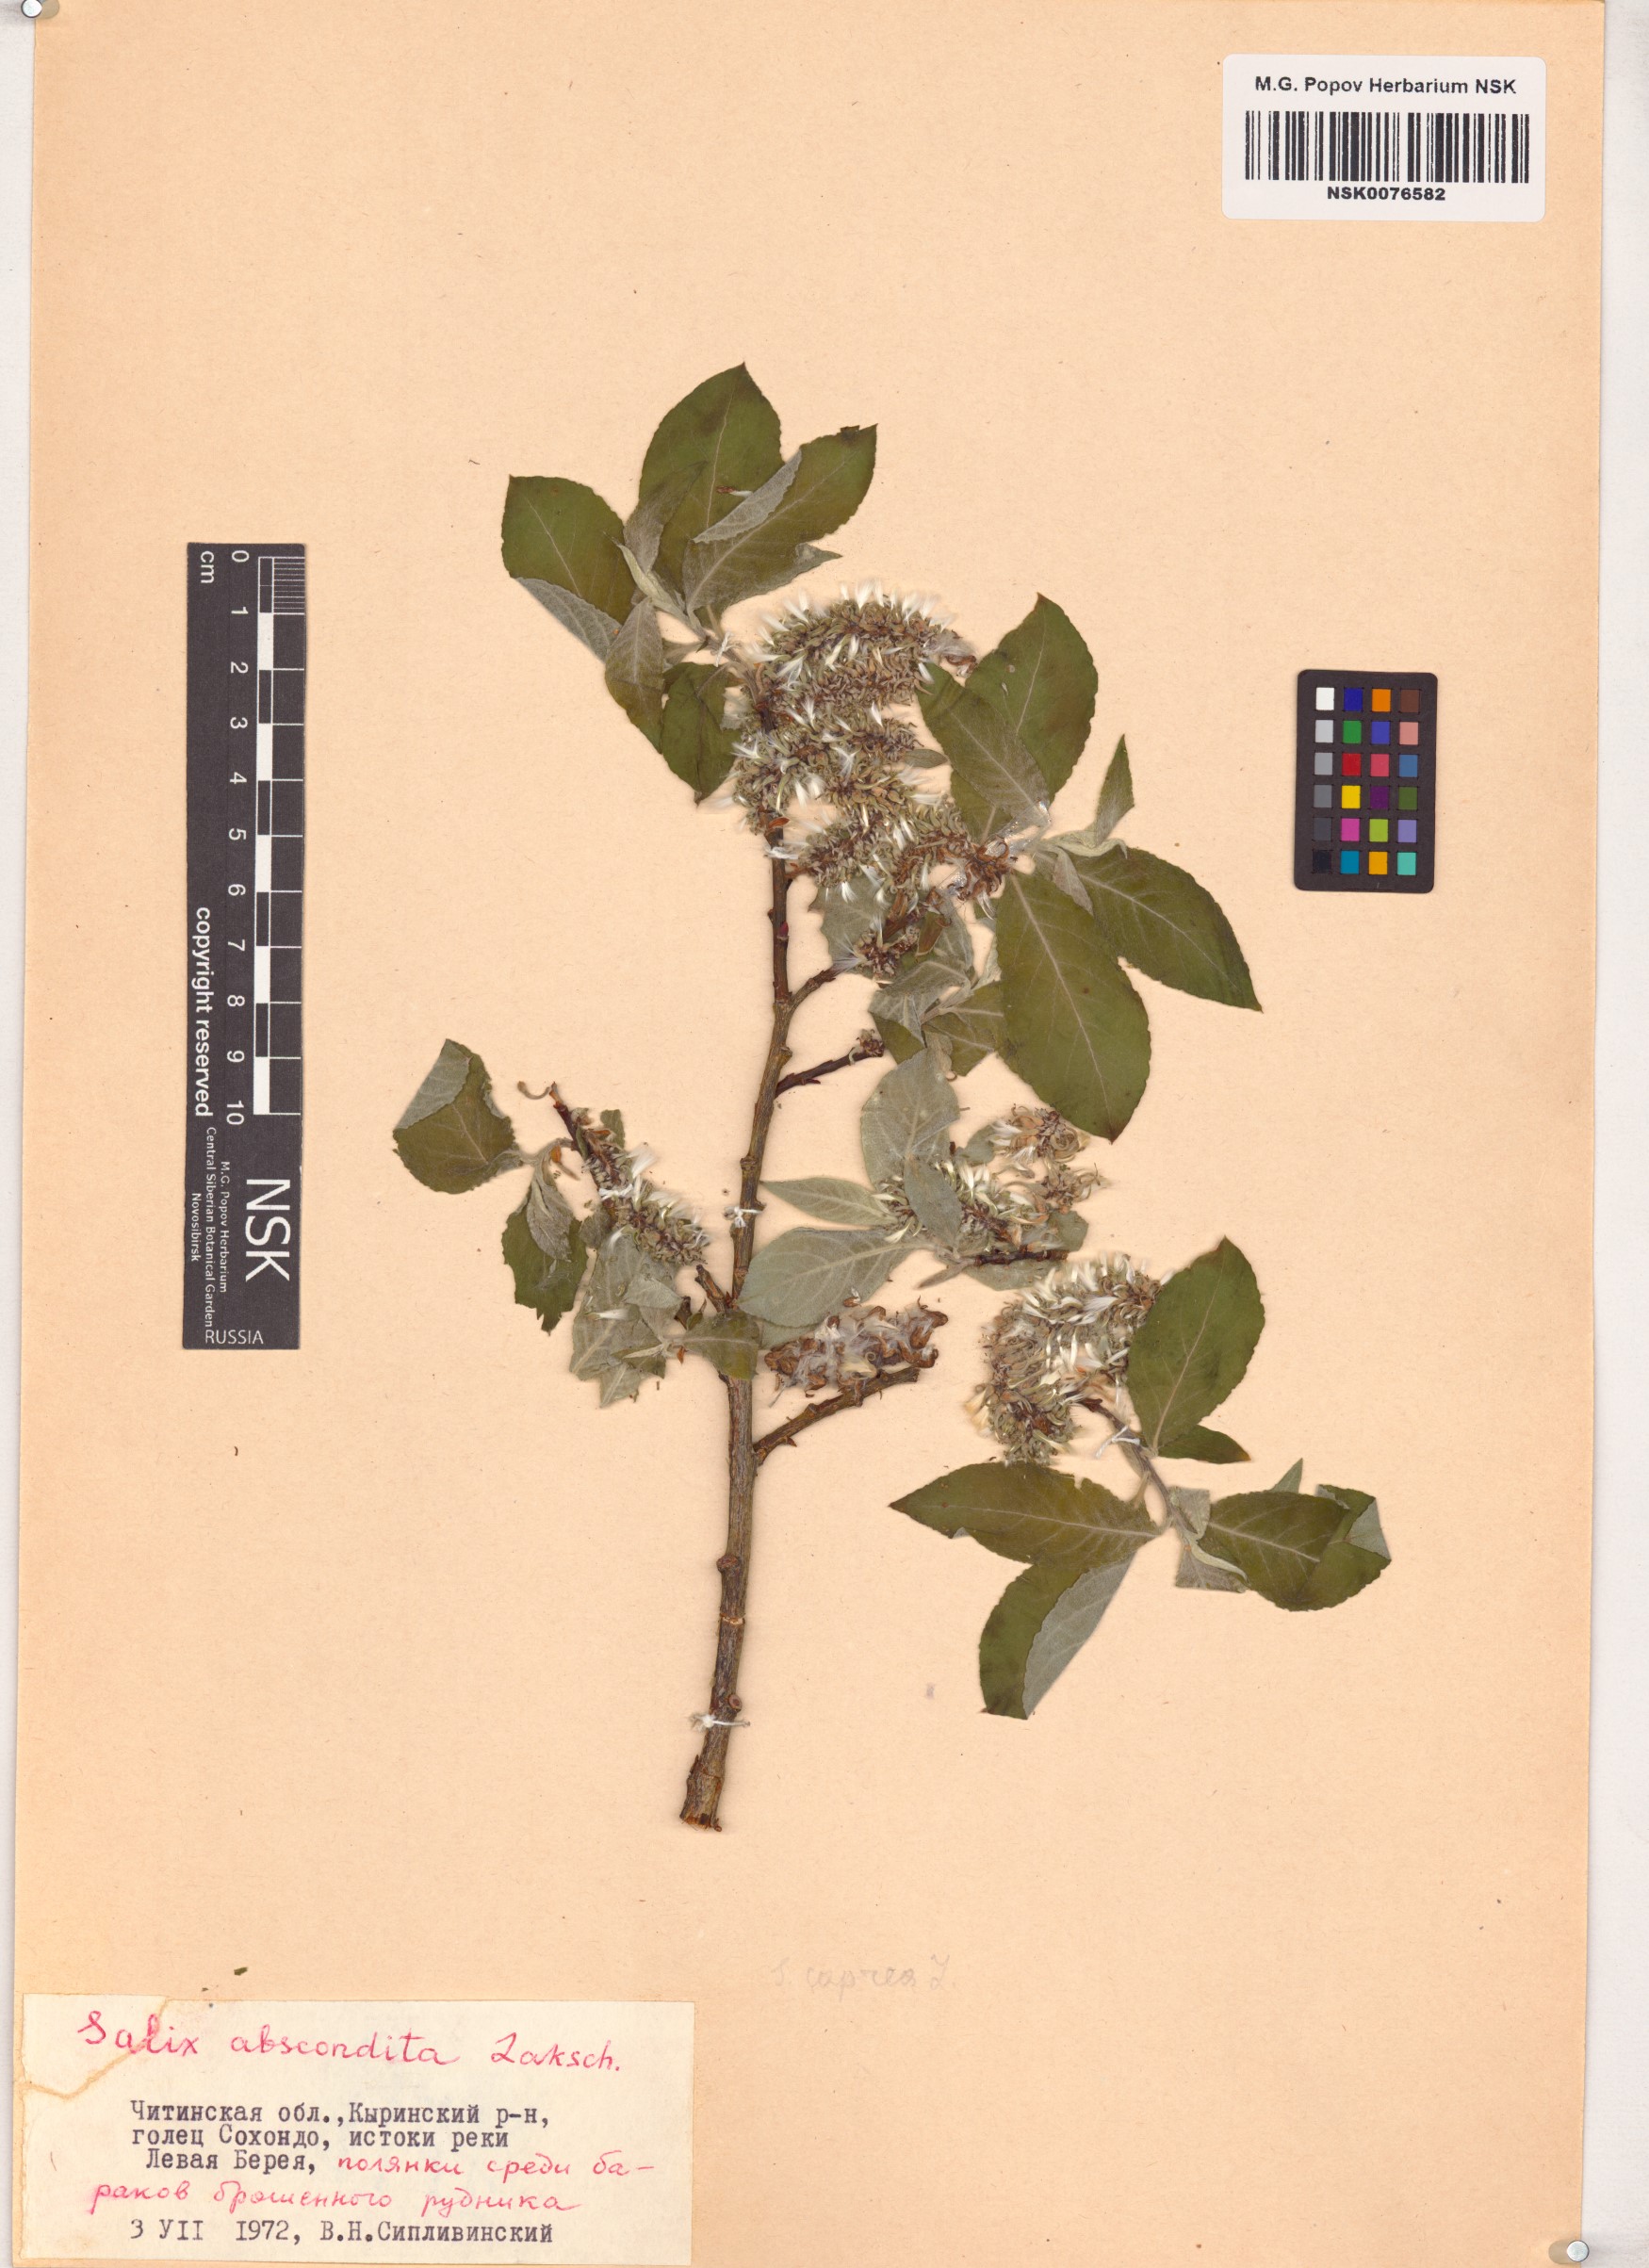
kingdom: Plantae
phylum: Tracheophyta
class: Magnoliopsida
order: Malpighiales
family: Salicaceae
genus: Salix
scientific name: Salix abscondita
